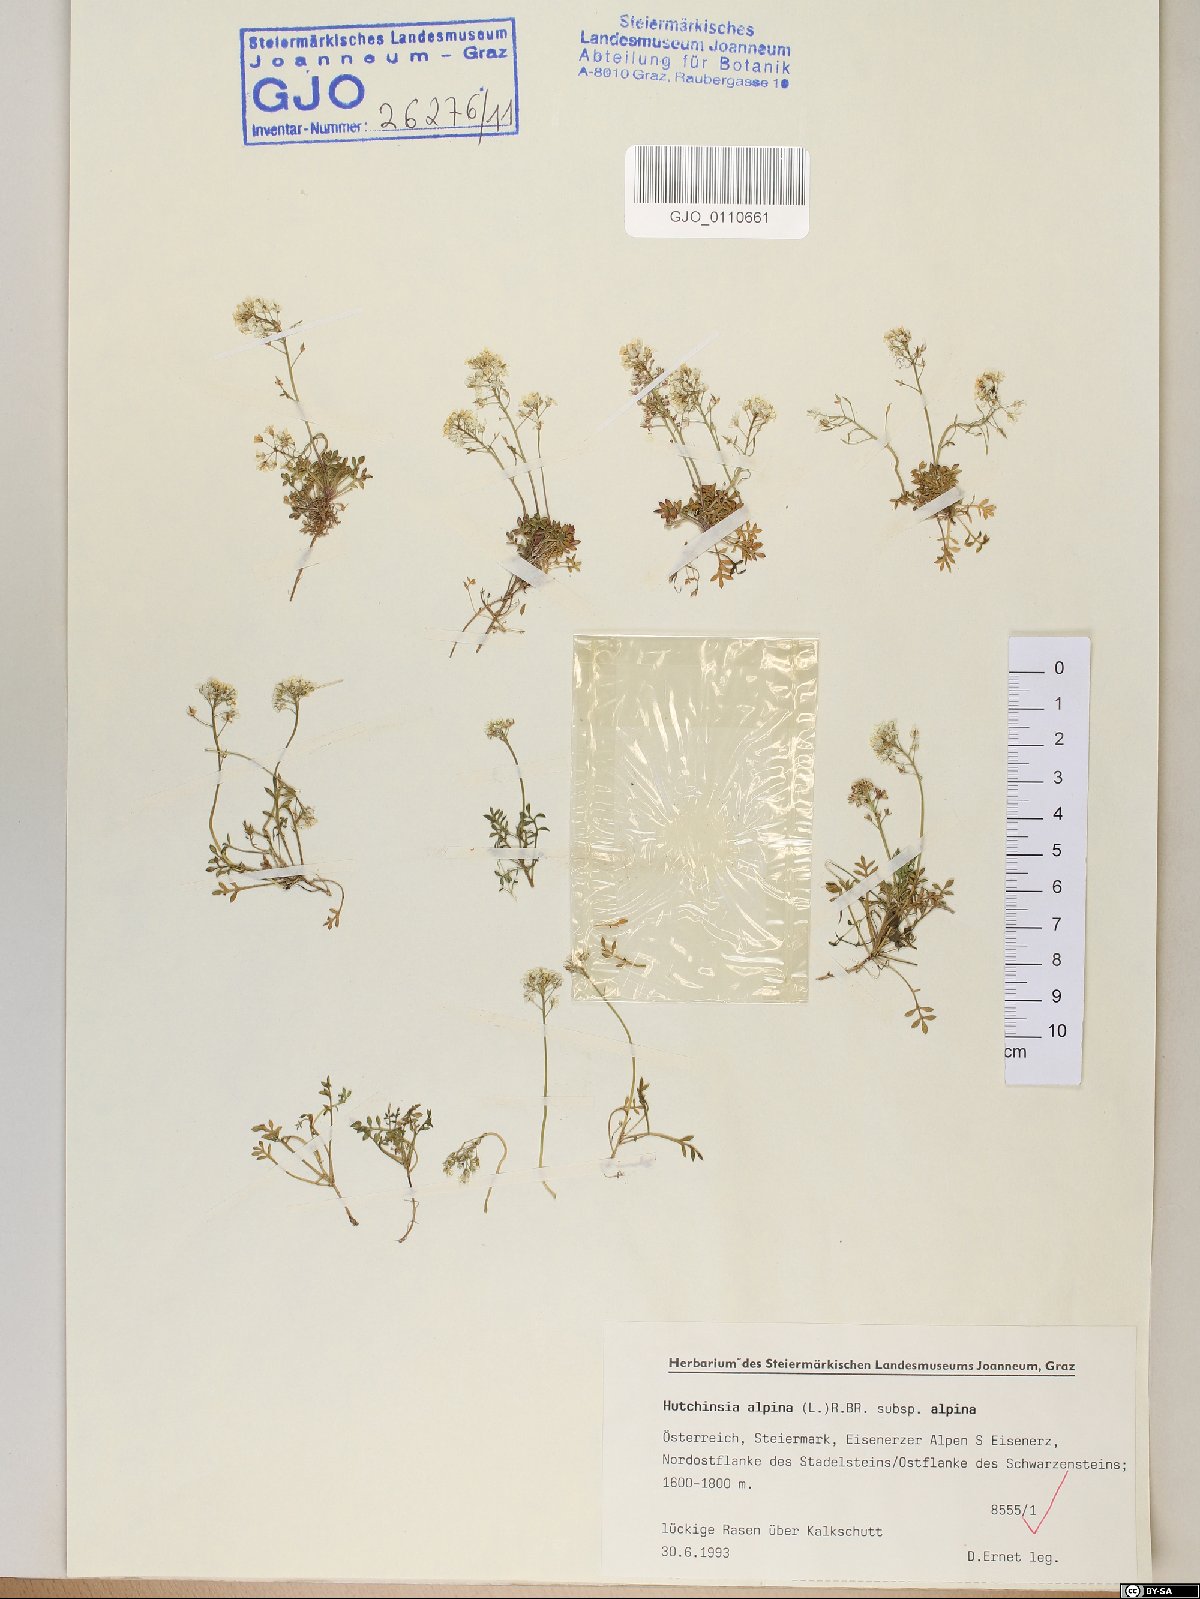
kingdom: Plantae
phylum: Tracheophyta
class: Magnoliopsida
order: Brassicales
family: Brassicaceae
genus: Hornungia
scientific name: Hornungia alpina
